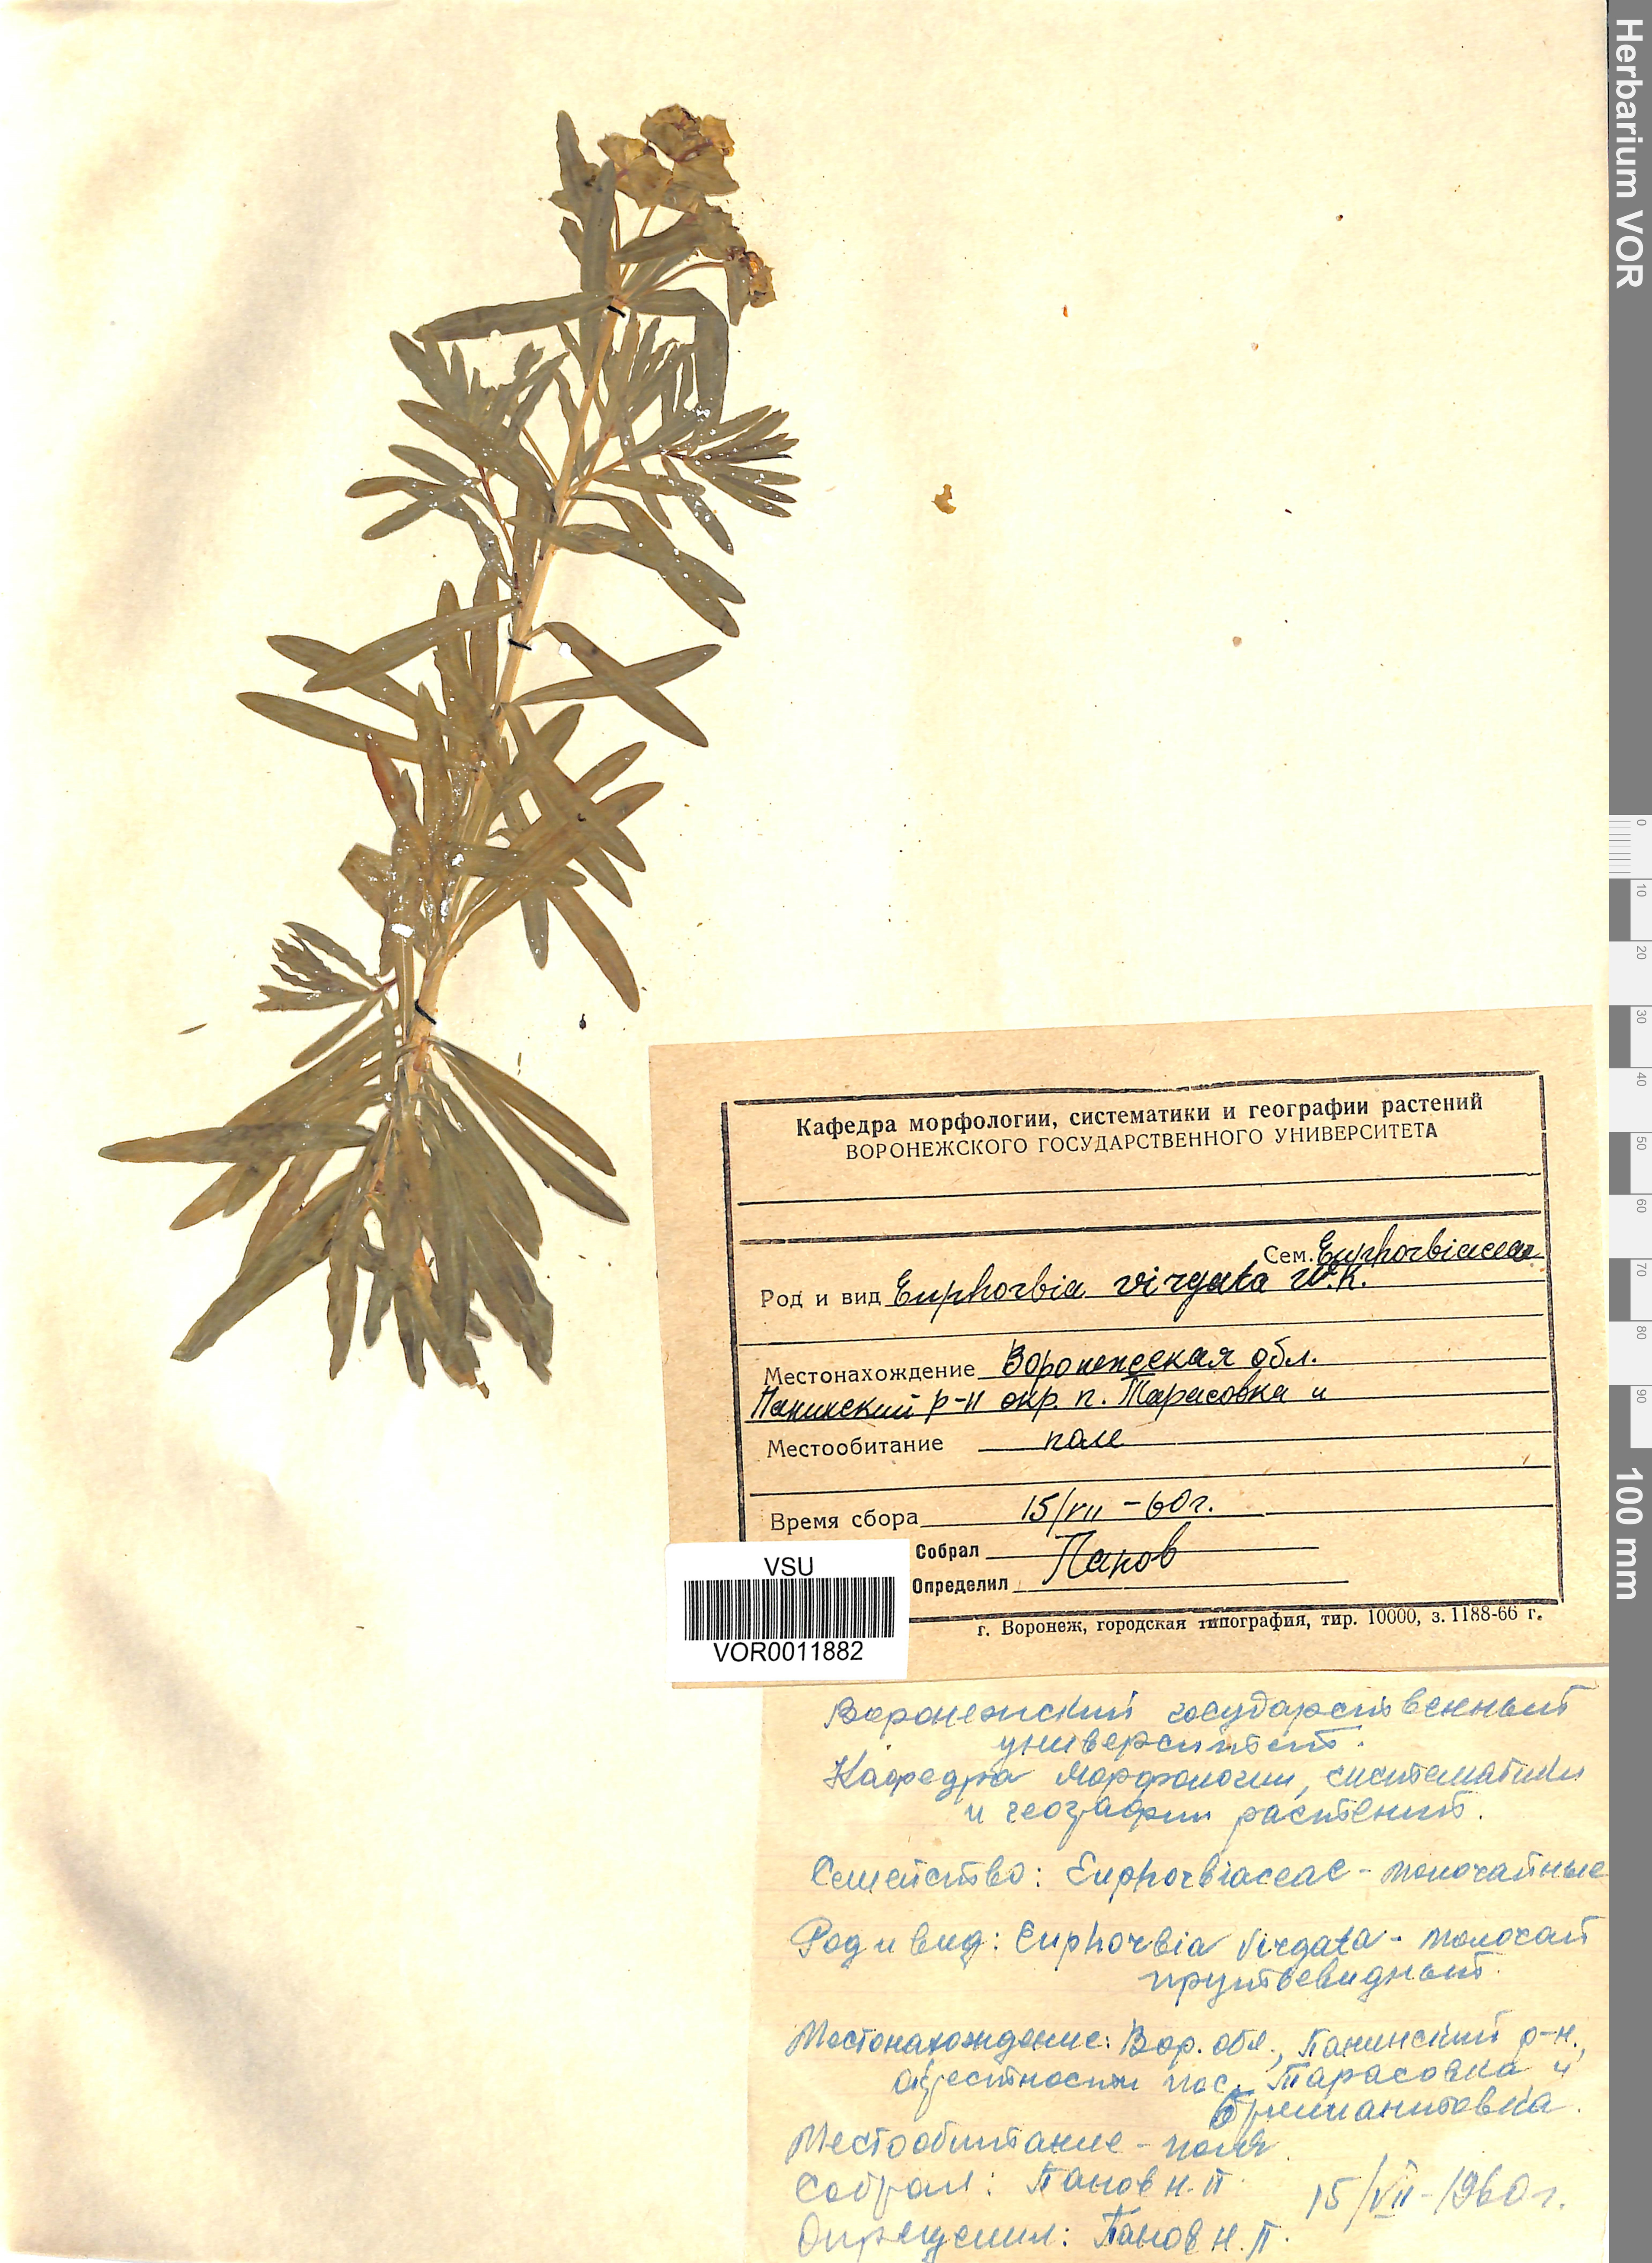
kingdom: Plantae
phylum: Tracheophyta
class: Magnoliopsida
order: Malpighiales
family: Euphorbiaceae
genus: Euphorbia
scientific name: Euphorbia virgata
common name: Leafy spurge
